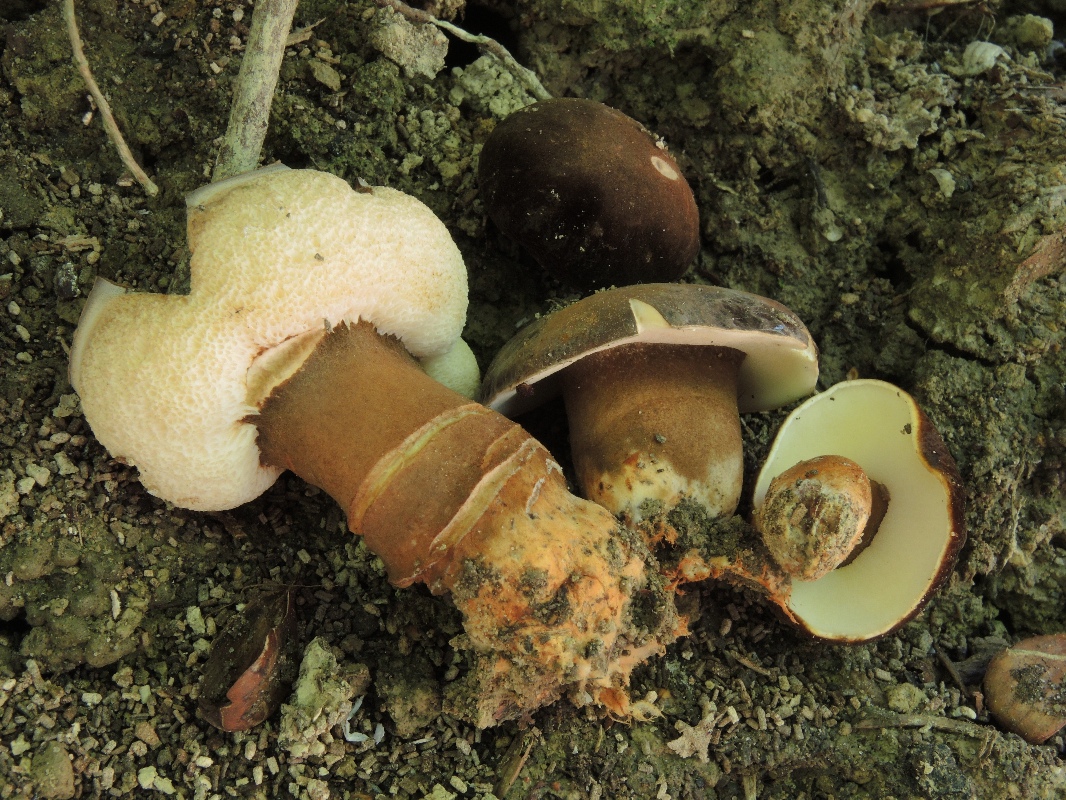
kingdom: Fungi
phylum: Basidiomycota
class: Agaricomycetes
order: Boletales
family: Gyroporaceae
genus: Gyroporus
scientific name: Gyroporus castaneus
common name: kastanie-kammerrørhat
